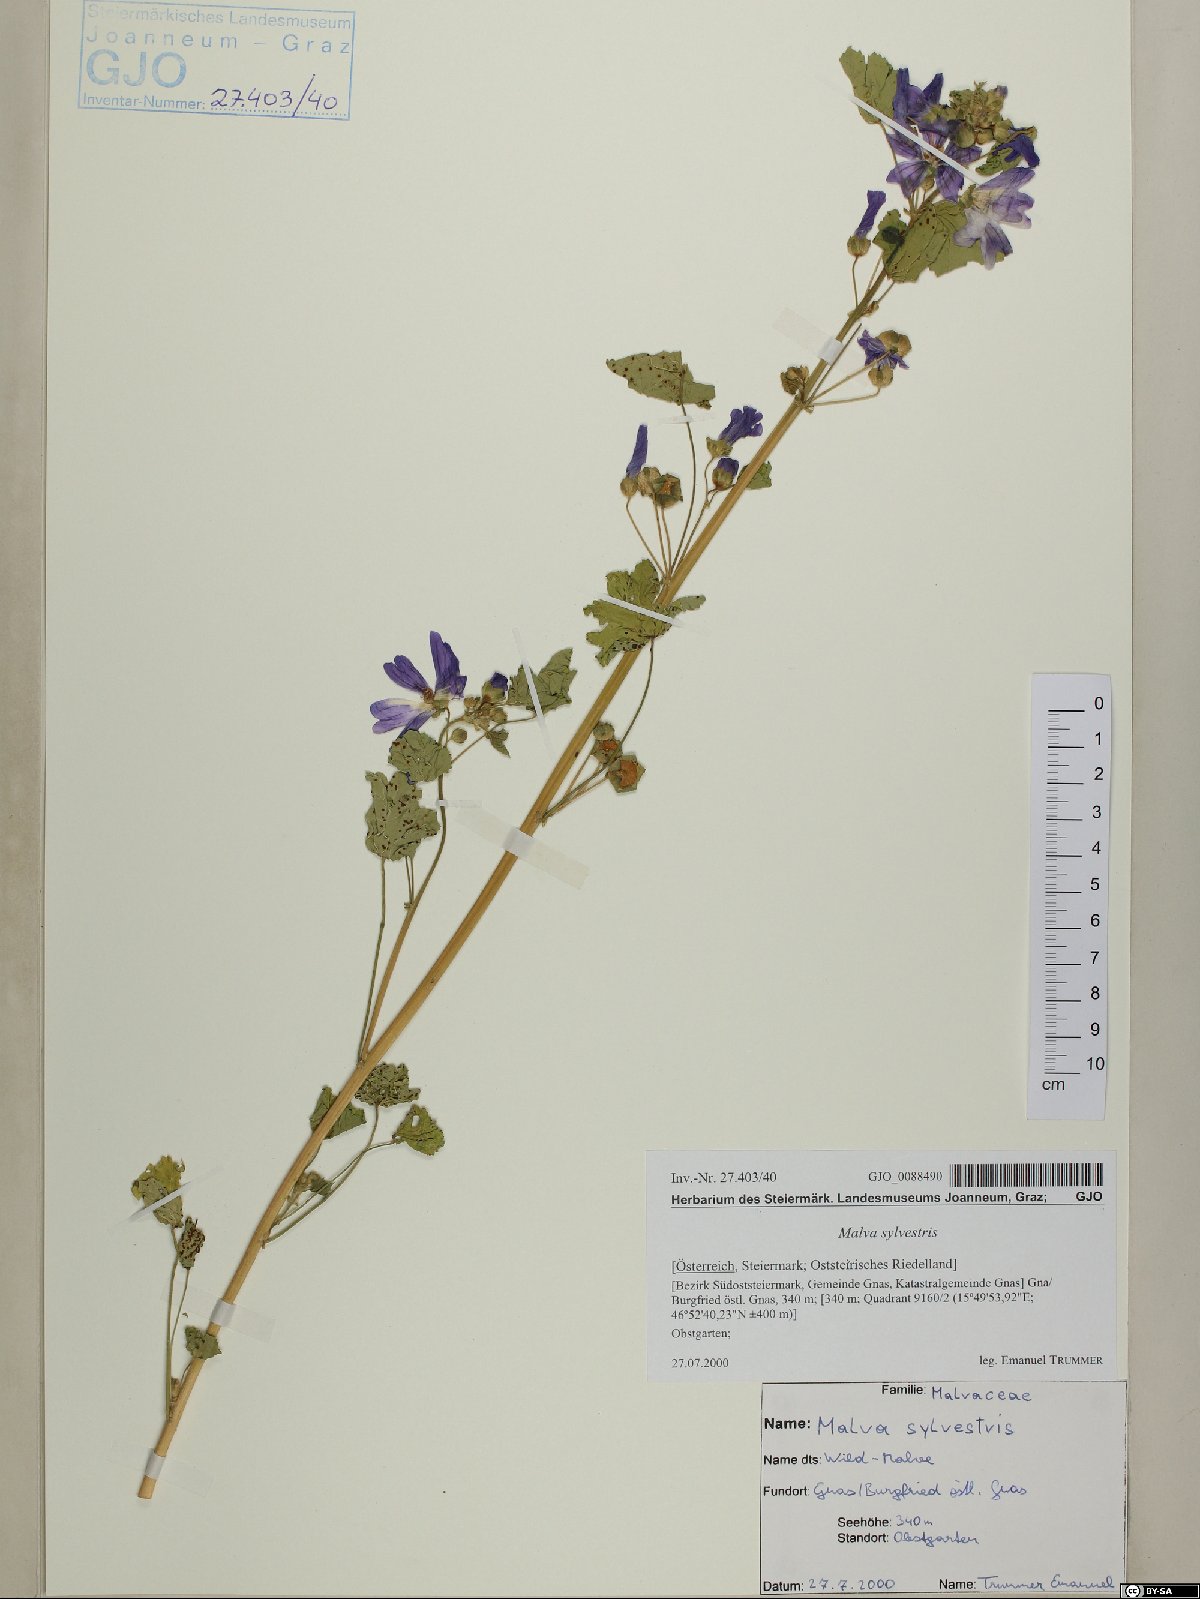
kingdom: Plantae
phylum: Tracheophyta
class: Magnoliopsida
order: Malvales
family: Malvaceae
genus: Malva
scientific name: Malva sylvestris
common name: Common mallow
